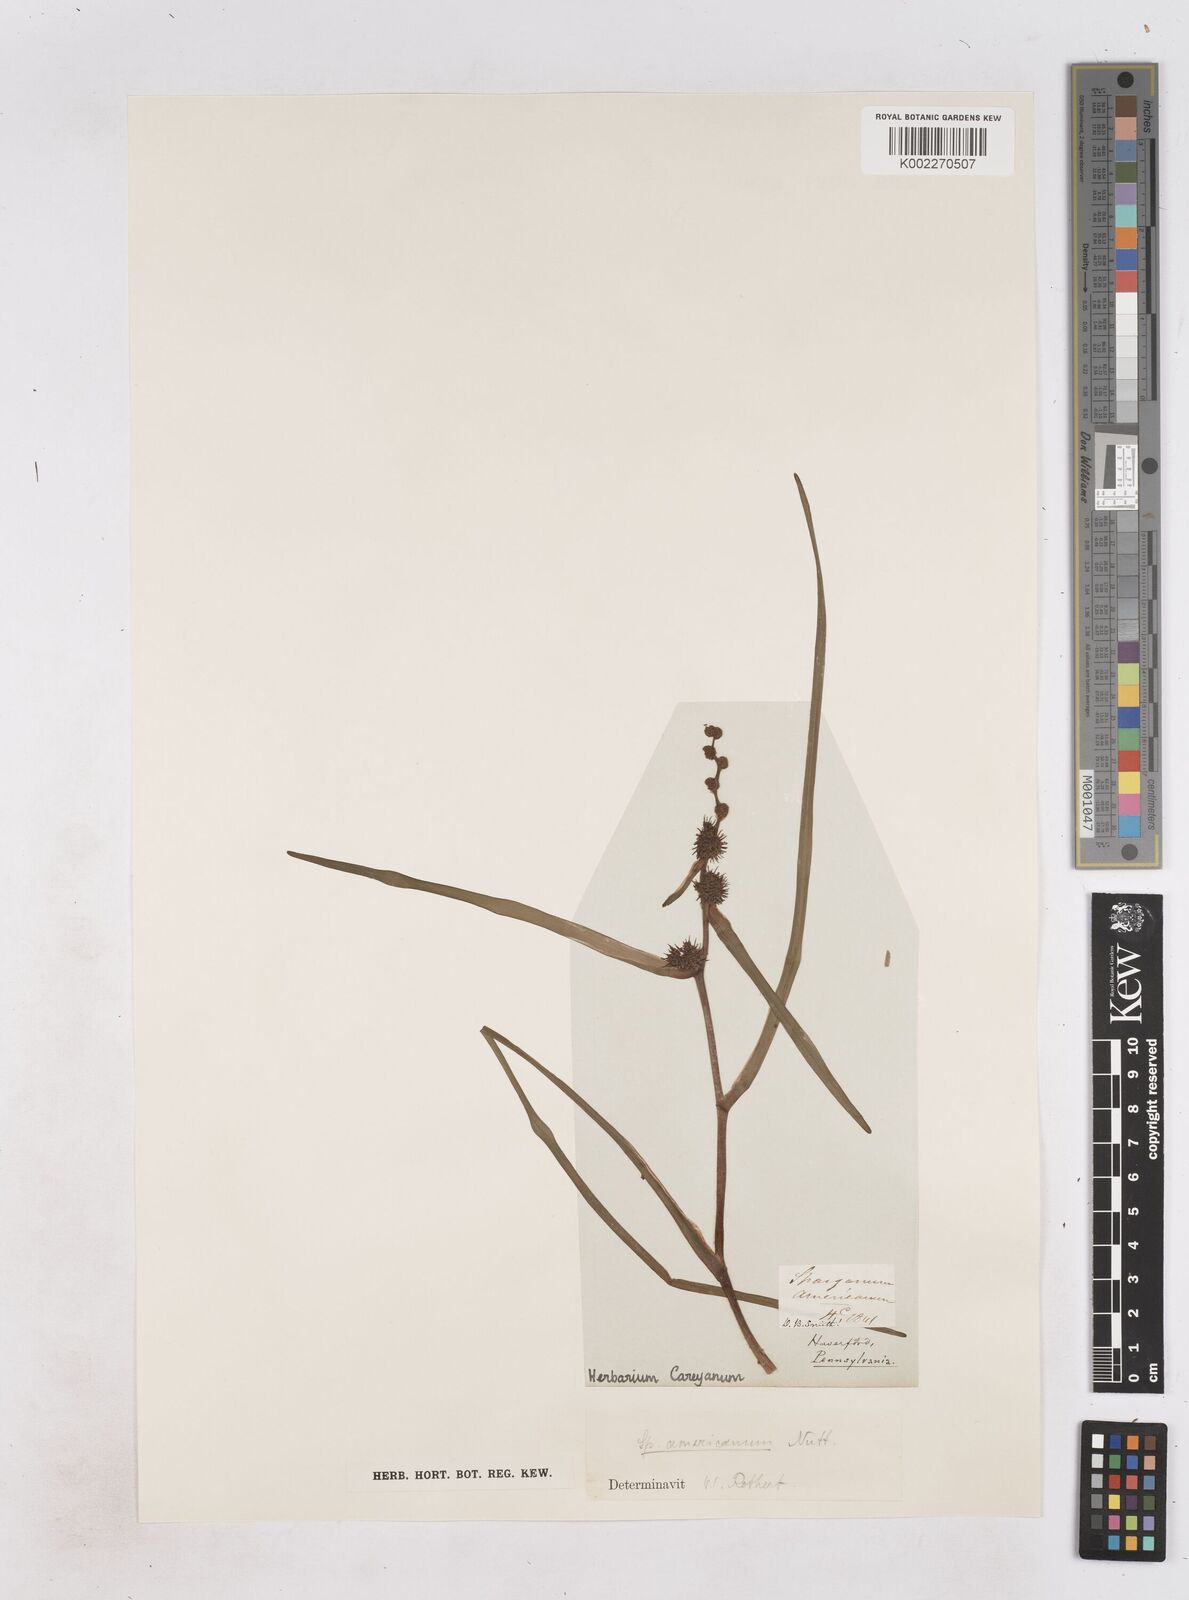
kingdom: Plantae
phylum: Tracheophyta
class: Liliopsida
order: Poales
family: Typhaceae
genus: Sparganium
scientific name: Sparganium americanum
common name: American burreed
